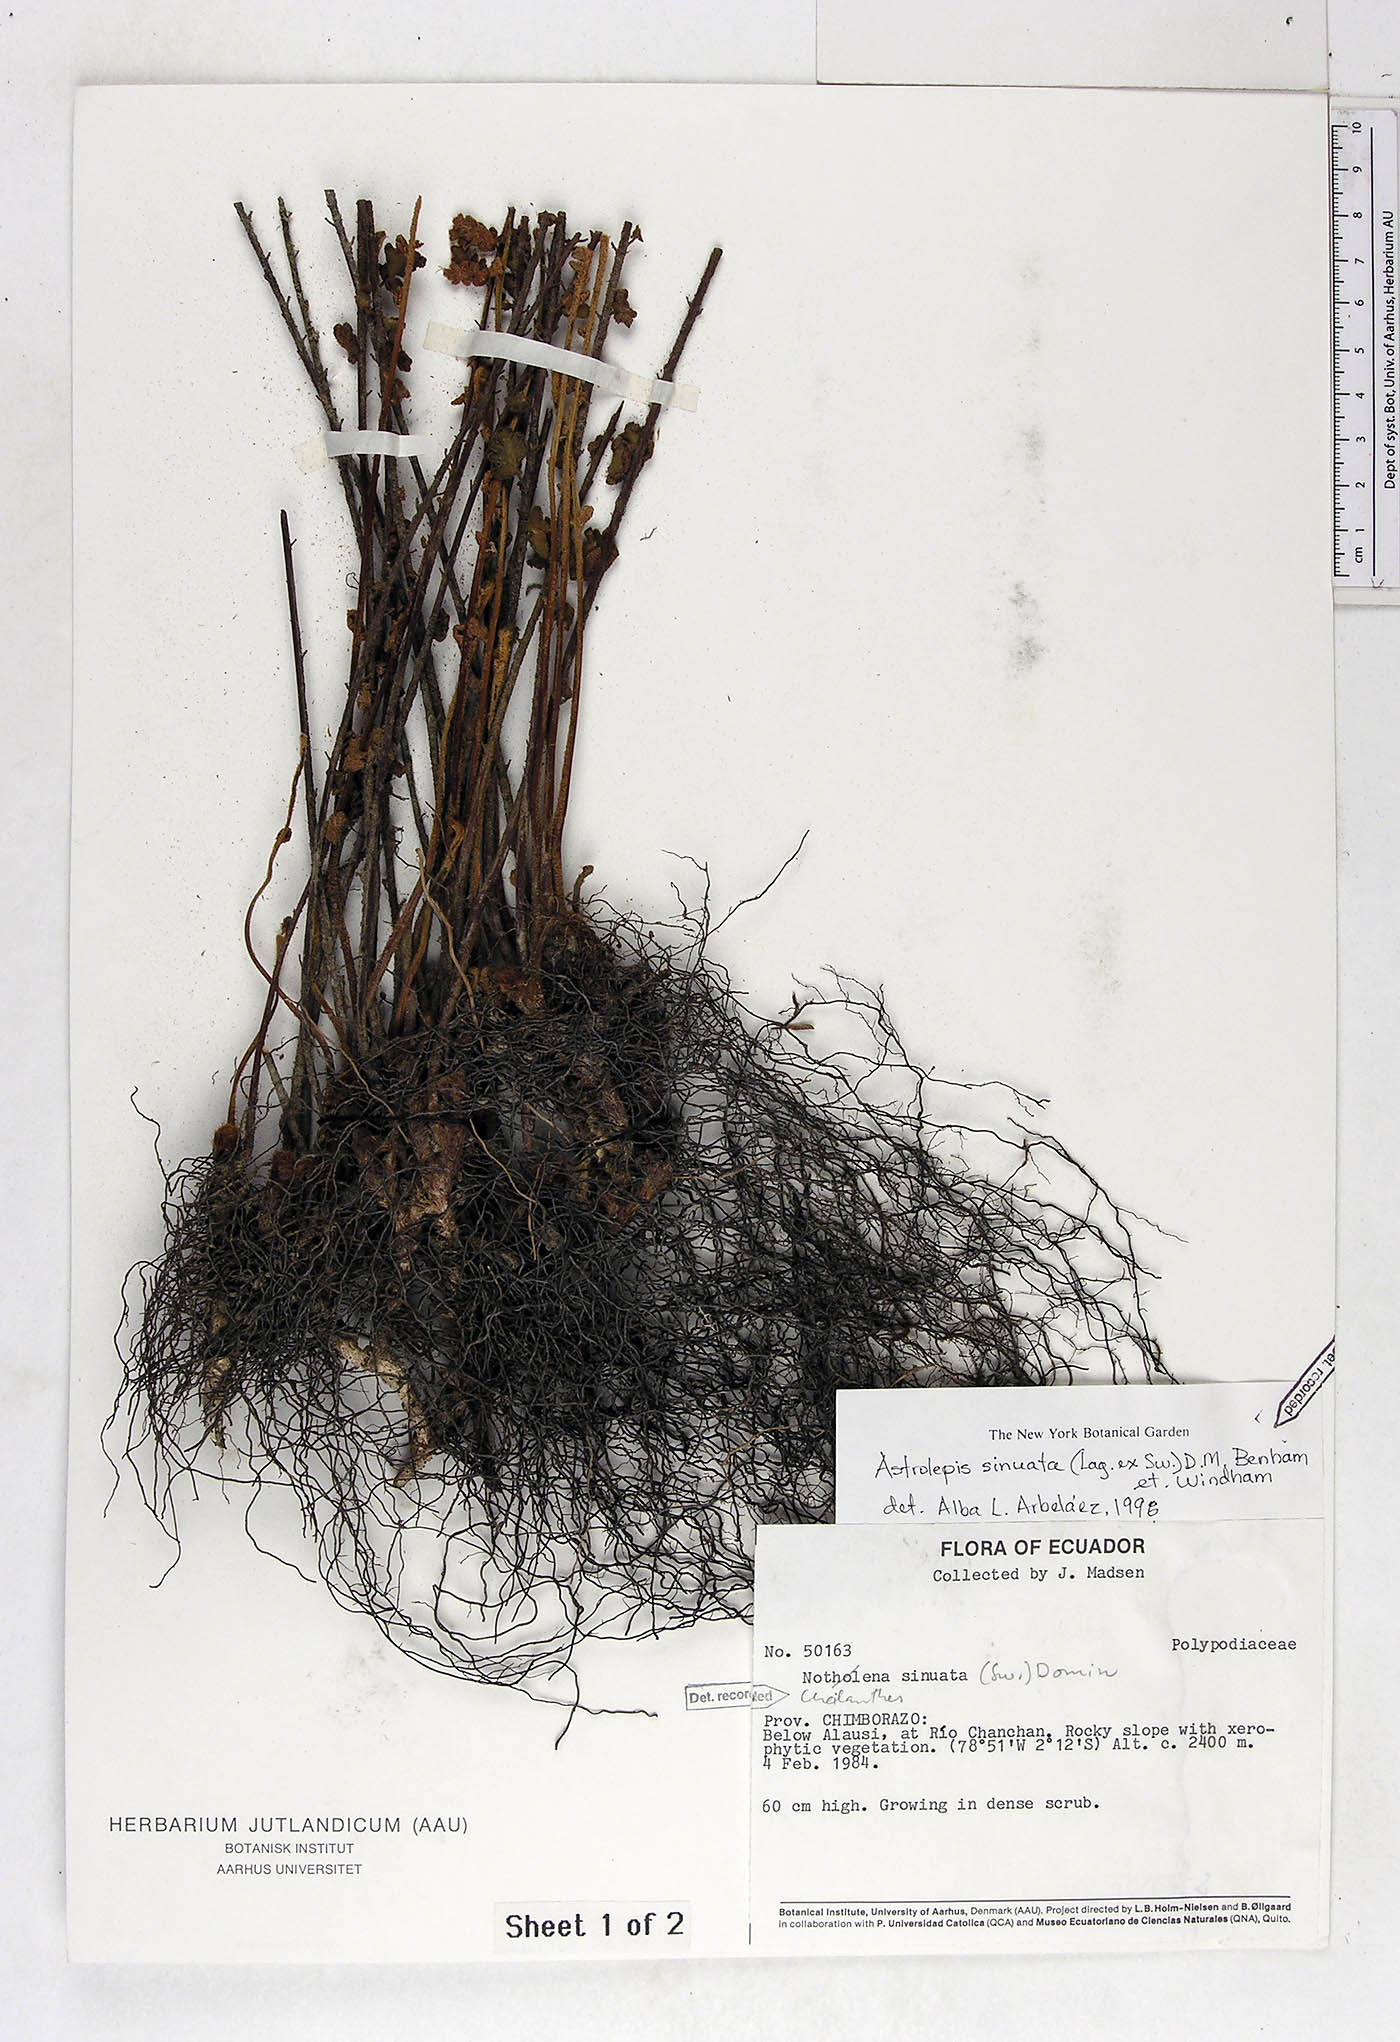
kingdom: Plantae
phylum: Tracheophyta
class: Polypodiopsida
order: Polypodiales
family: Pteridaceae
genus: Astrolepis
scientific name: Astrolepis sinuata
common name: Wavy scaly cloakfern
